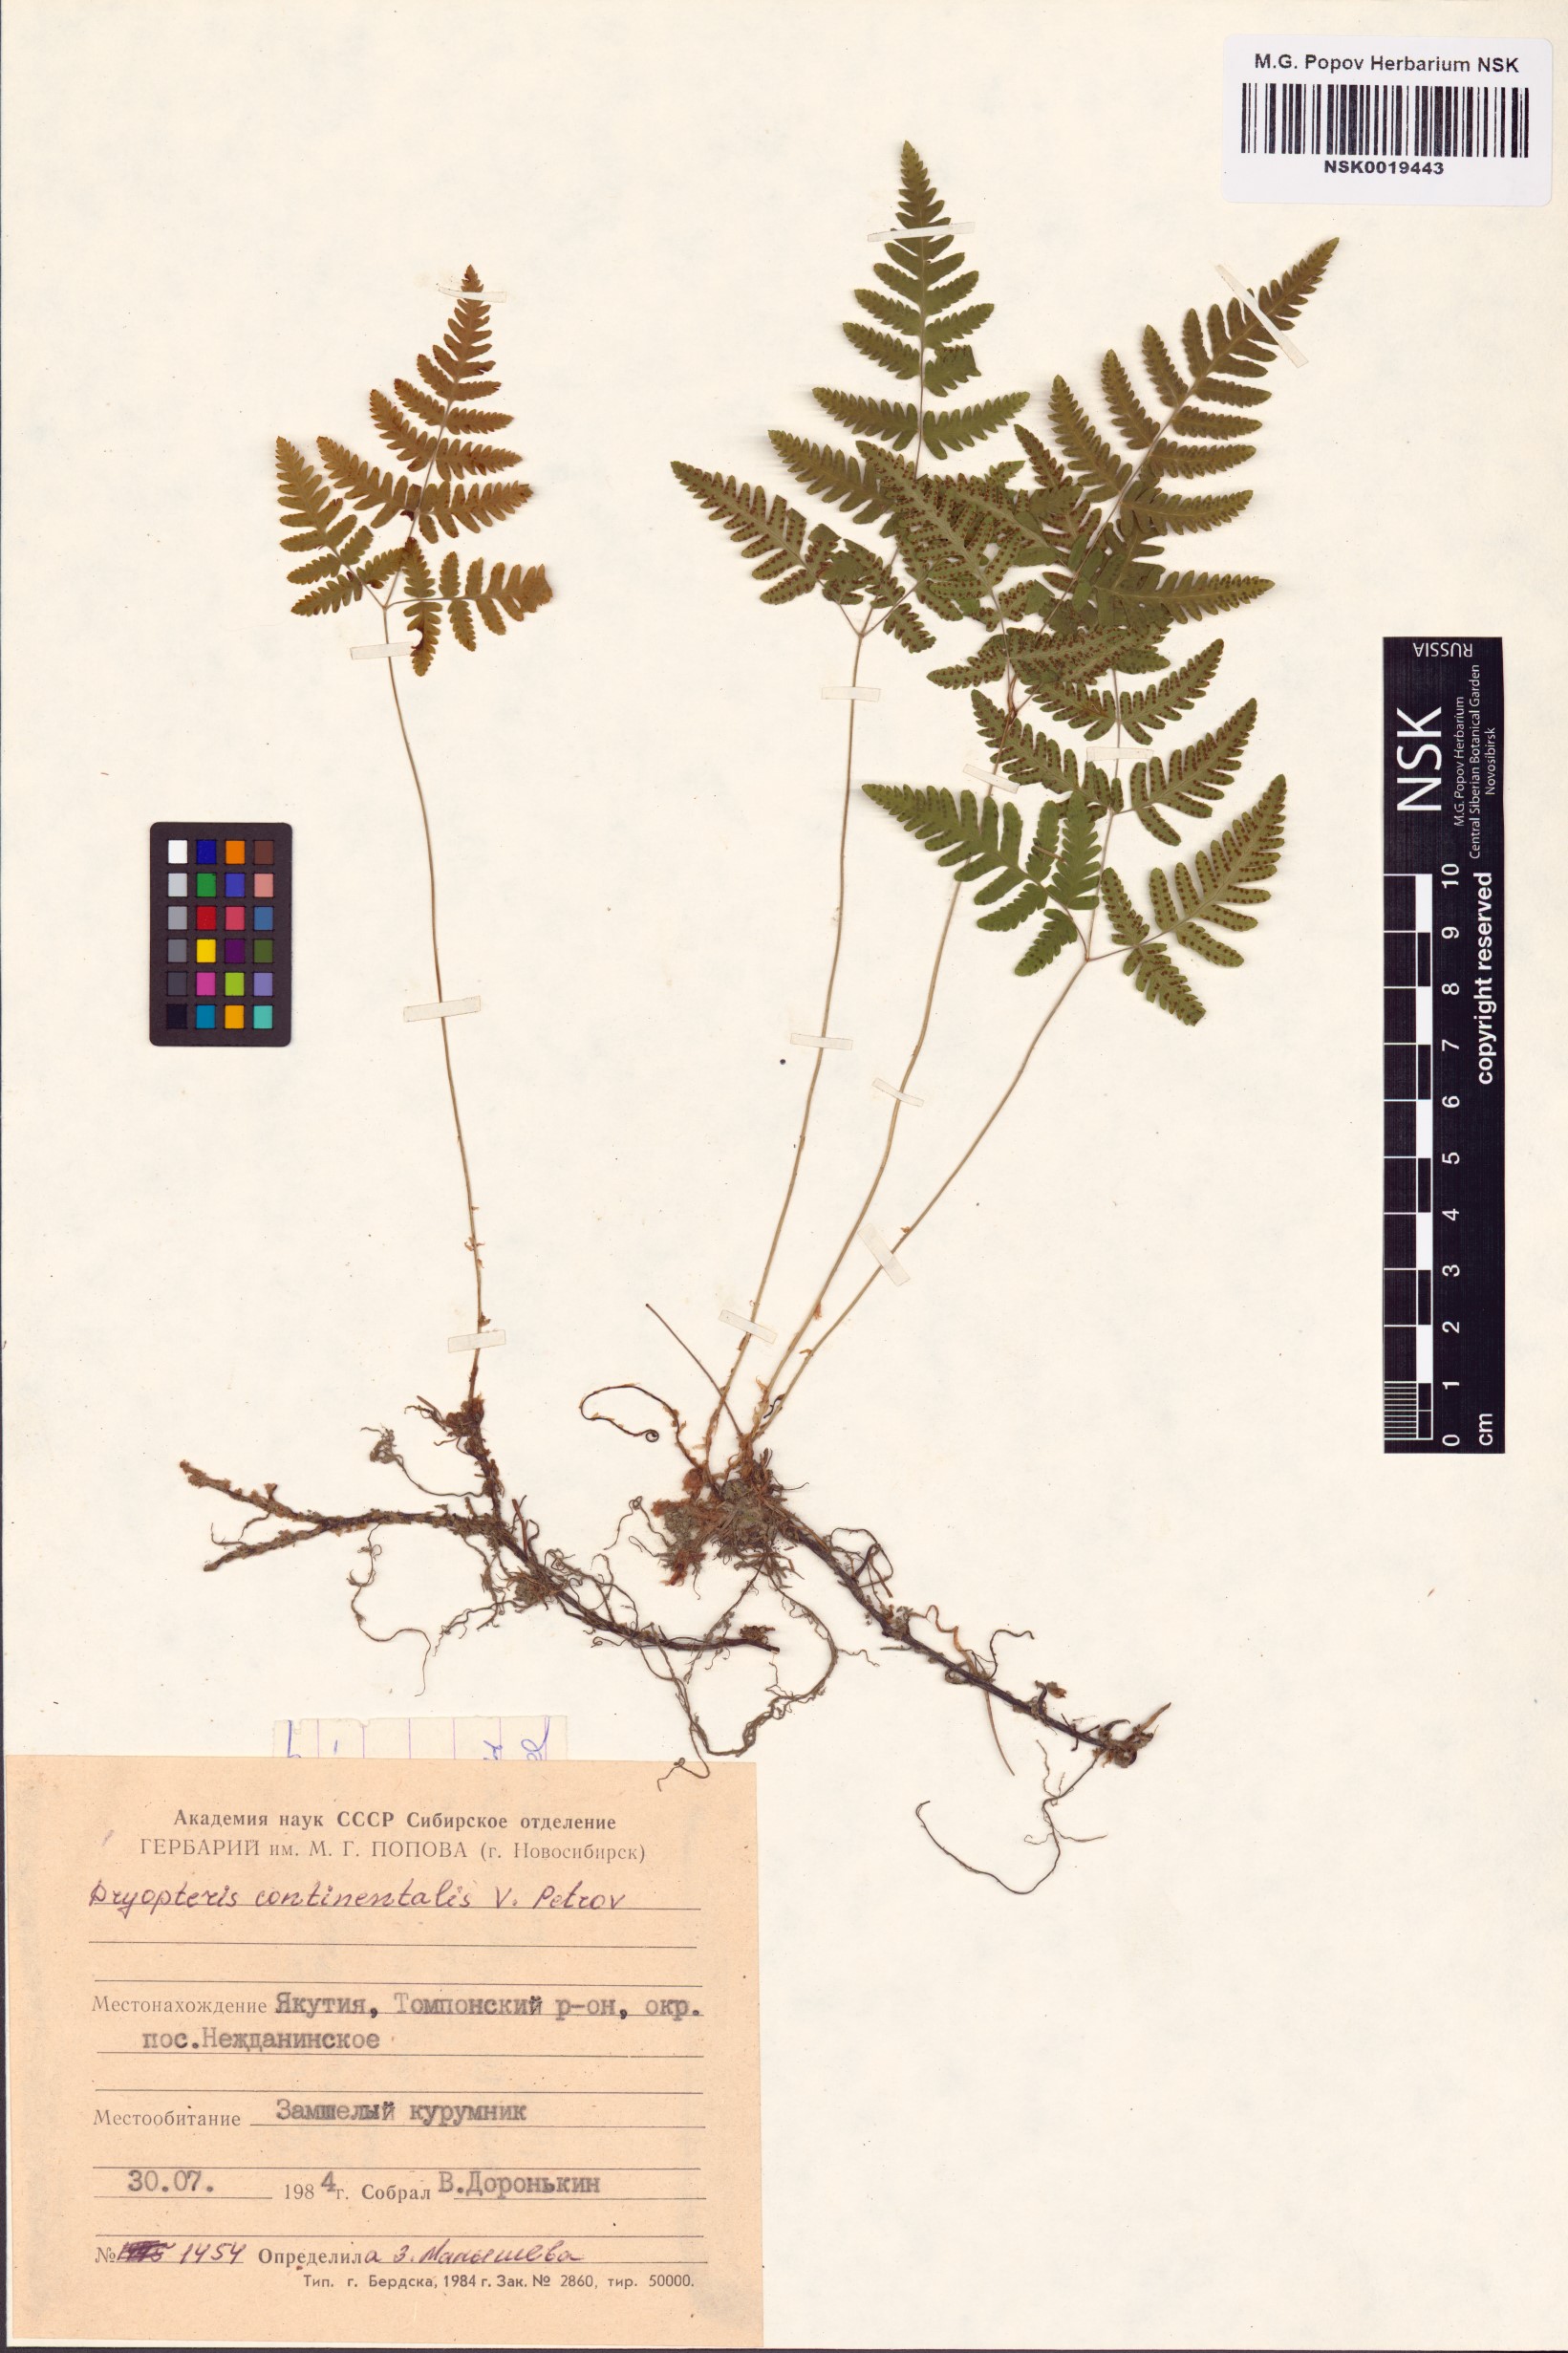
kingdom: Plantae
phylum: Tracheophyta
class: Polypodiopsida
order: Polypodiales
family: Cystopteridaceae
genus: Gymnocarpium
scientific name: Gymnocarpium continentale
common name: Asian oak fern
